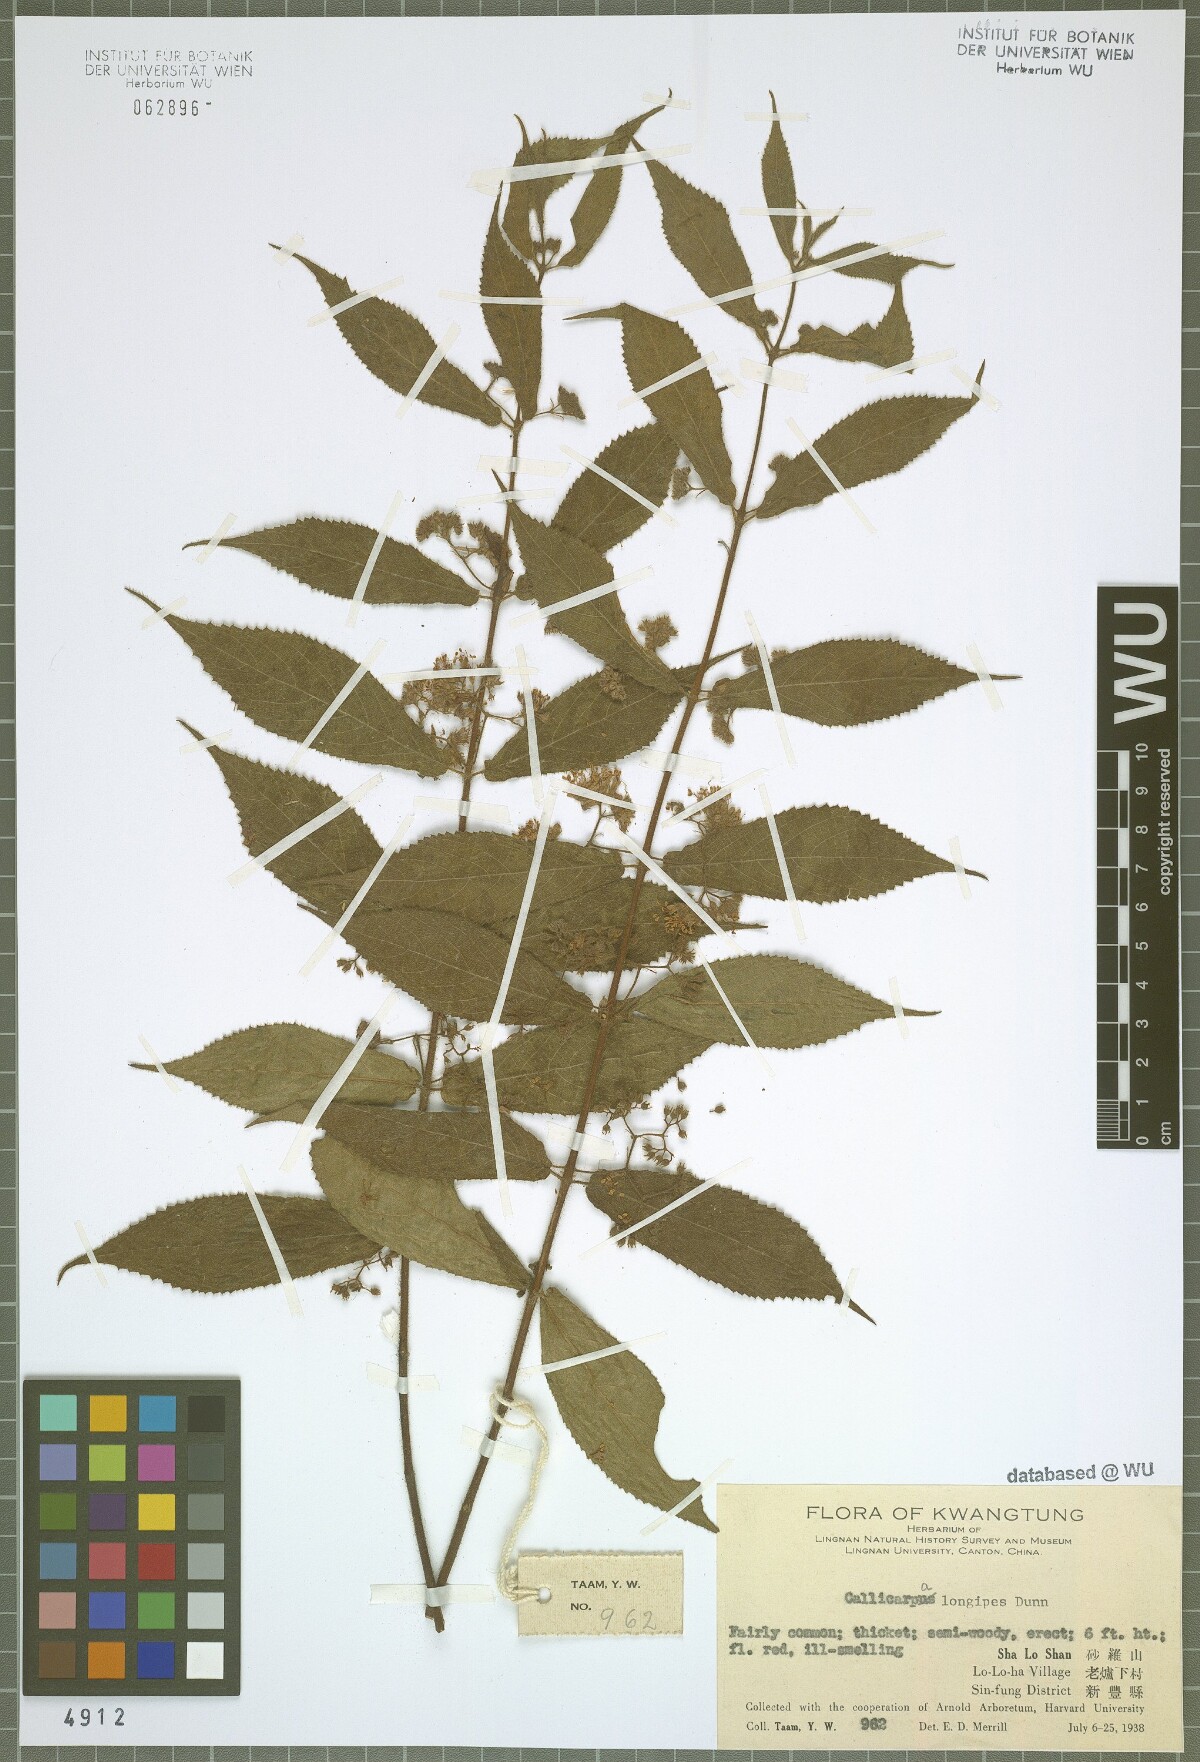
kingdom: Plantae
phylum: Tracheophyta
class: Magnoliopsida
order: Lamiales
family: Lamiaceae
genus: Callicarpa
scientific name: Callicarpa longipes
